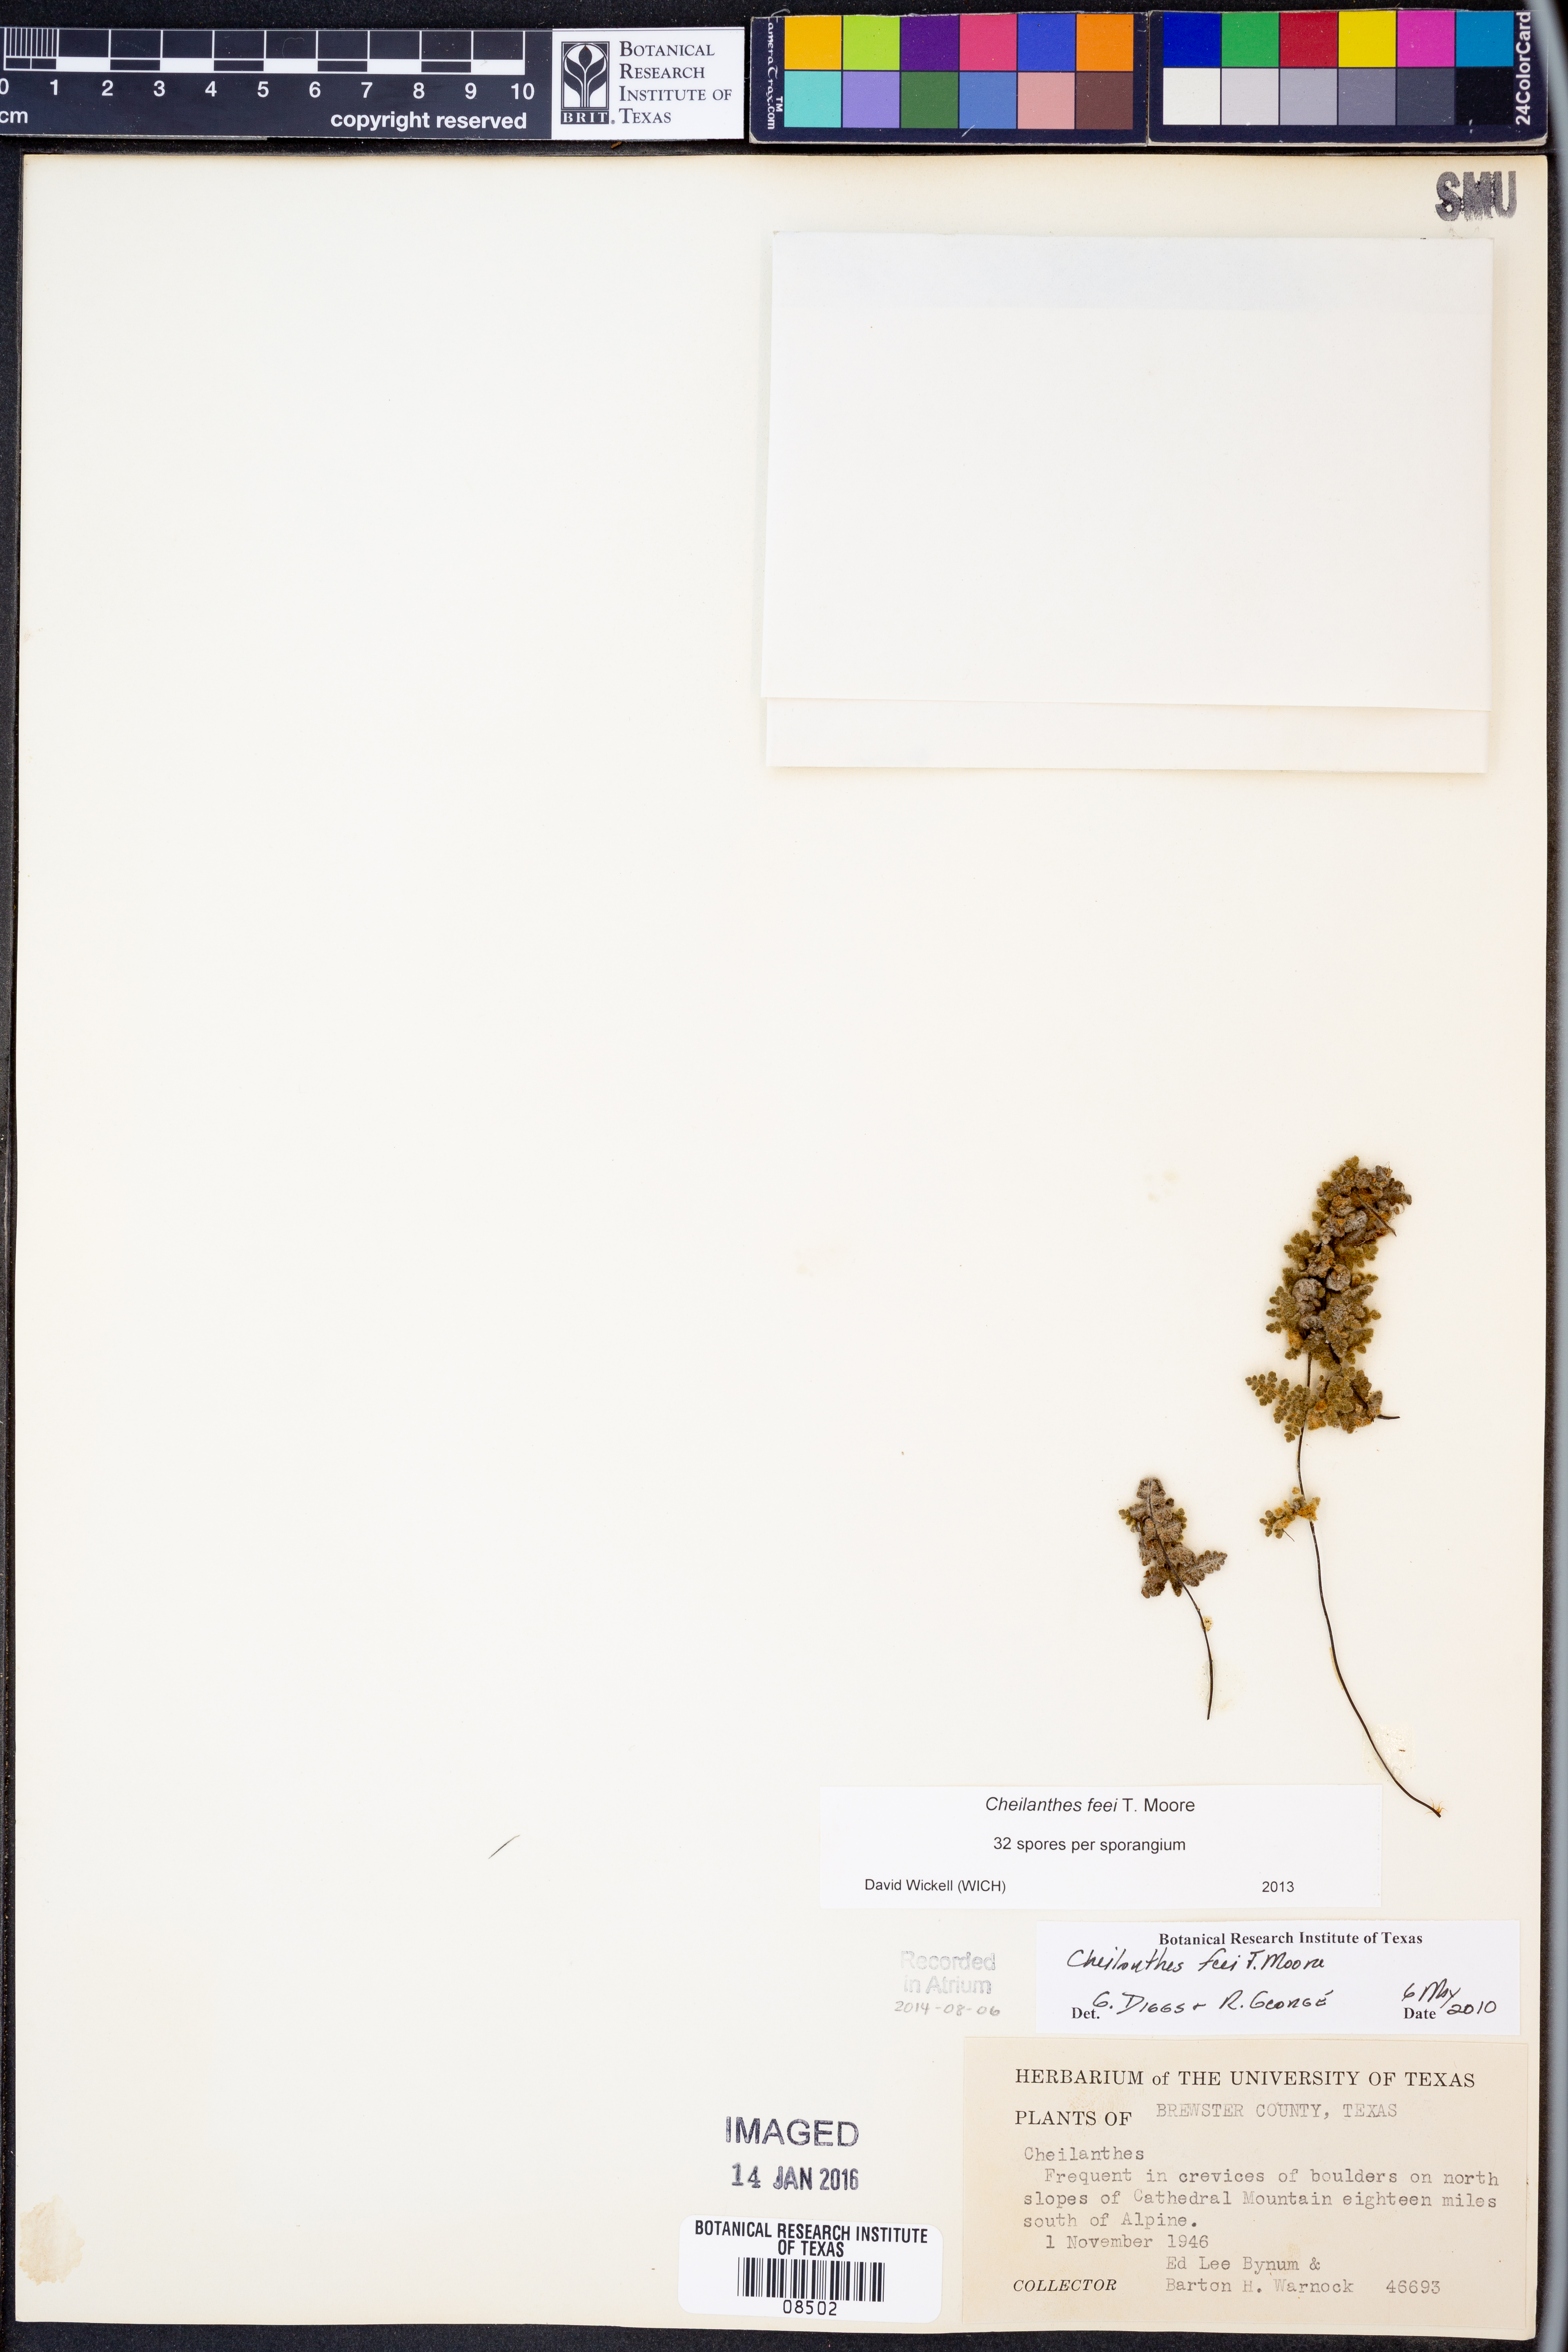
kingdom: Plantae
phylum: Tracheophyta
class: Polypodiopsida
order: Polypodiales
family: Pteridaceae
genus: Myriopteris
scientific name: Myriopteris gracilis
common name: Fee's lip fern
